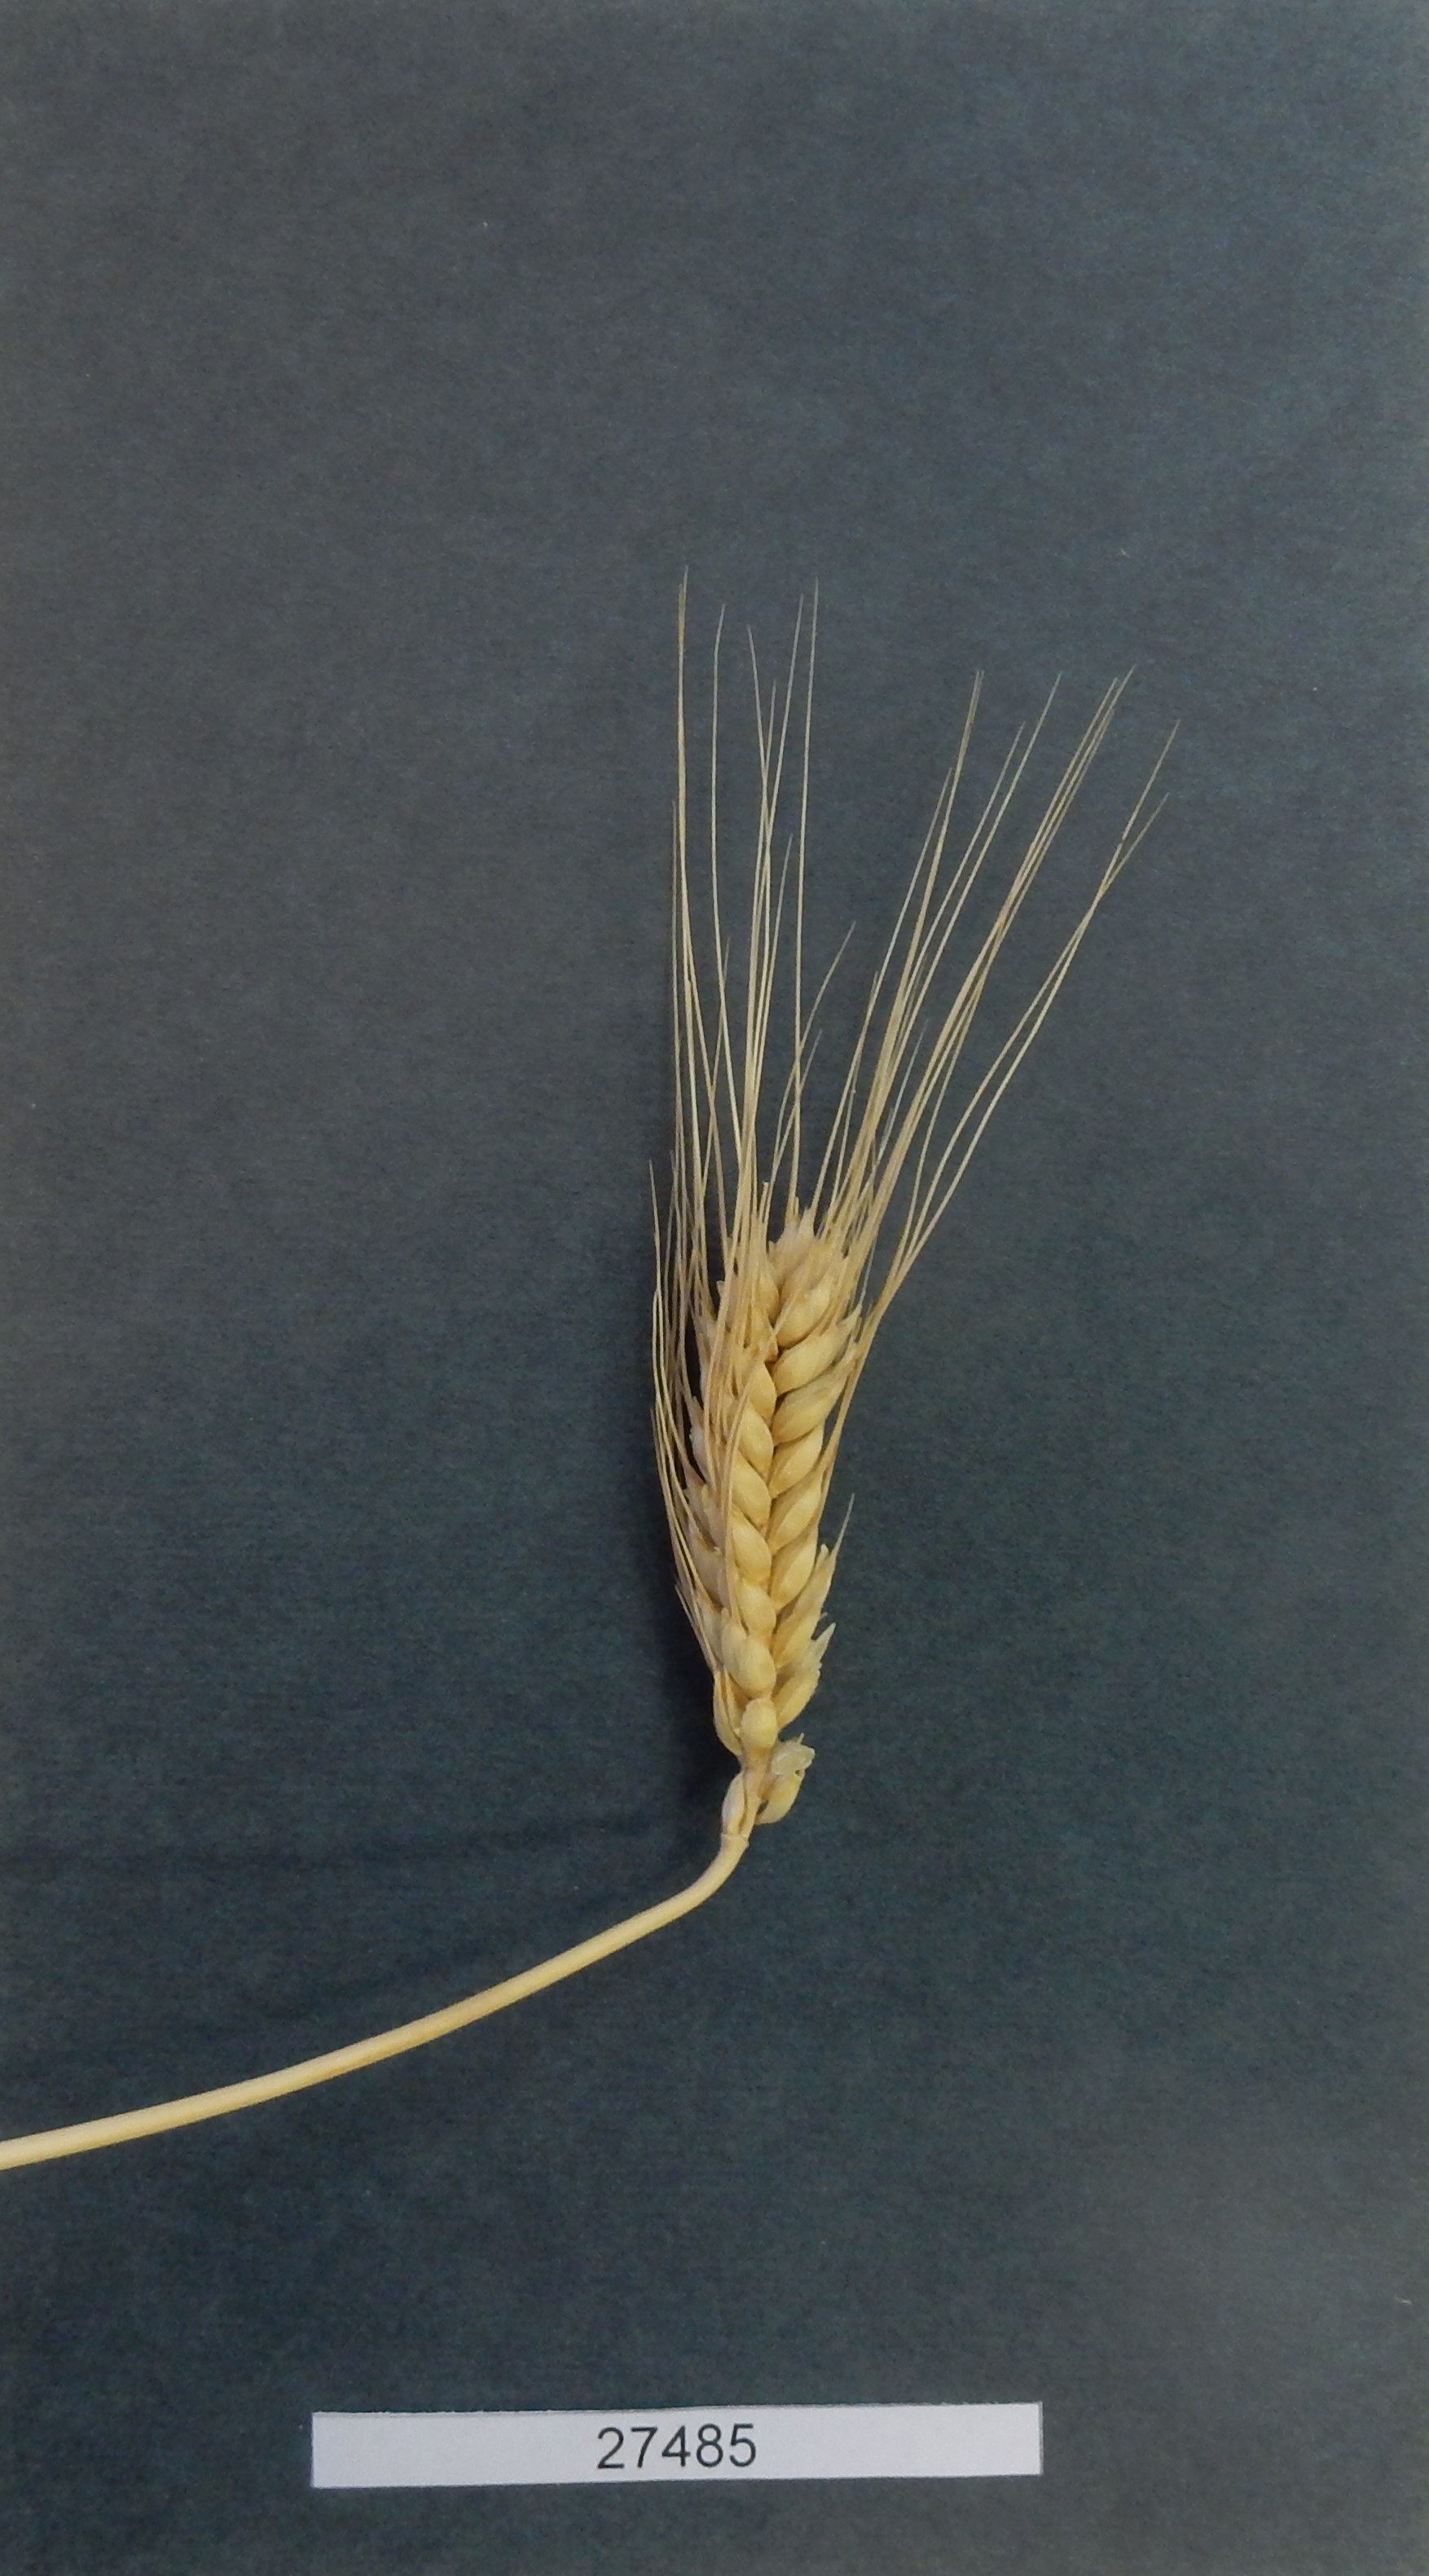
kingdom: Plantae
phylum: Tracheophyta
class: Liliopsida
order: Poales
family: Poaceae
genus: Triticum
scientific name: Triticum aestivum
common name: Common wheat
